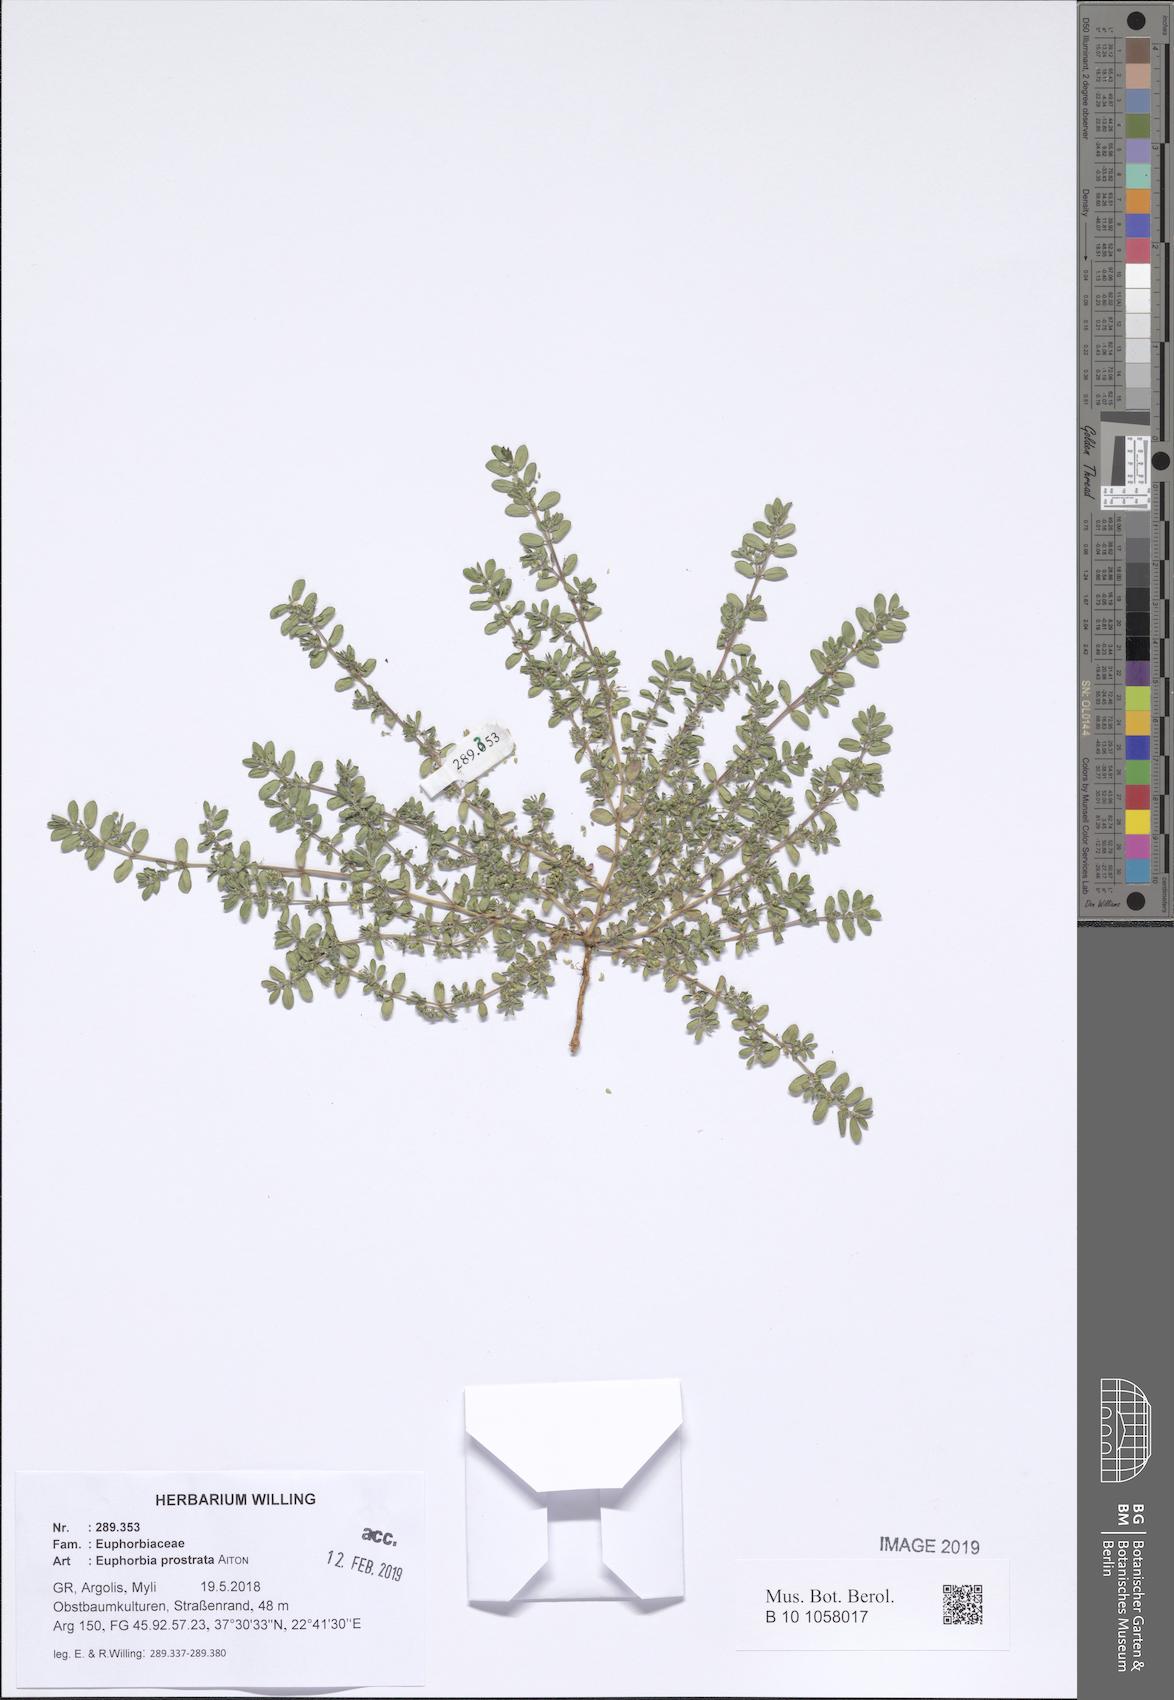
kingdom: Plantae
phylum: Tracheophyta
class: Magnoliopsida
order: Malpighiales
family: Euphorbiaceae
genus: Euphorbia
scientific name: Euphorbia prostrata
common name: Prostrate sandmat
